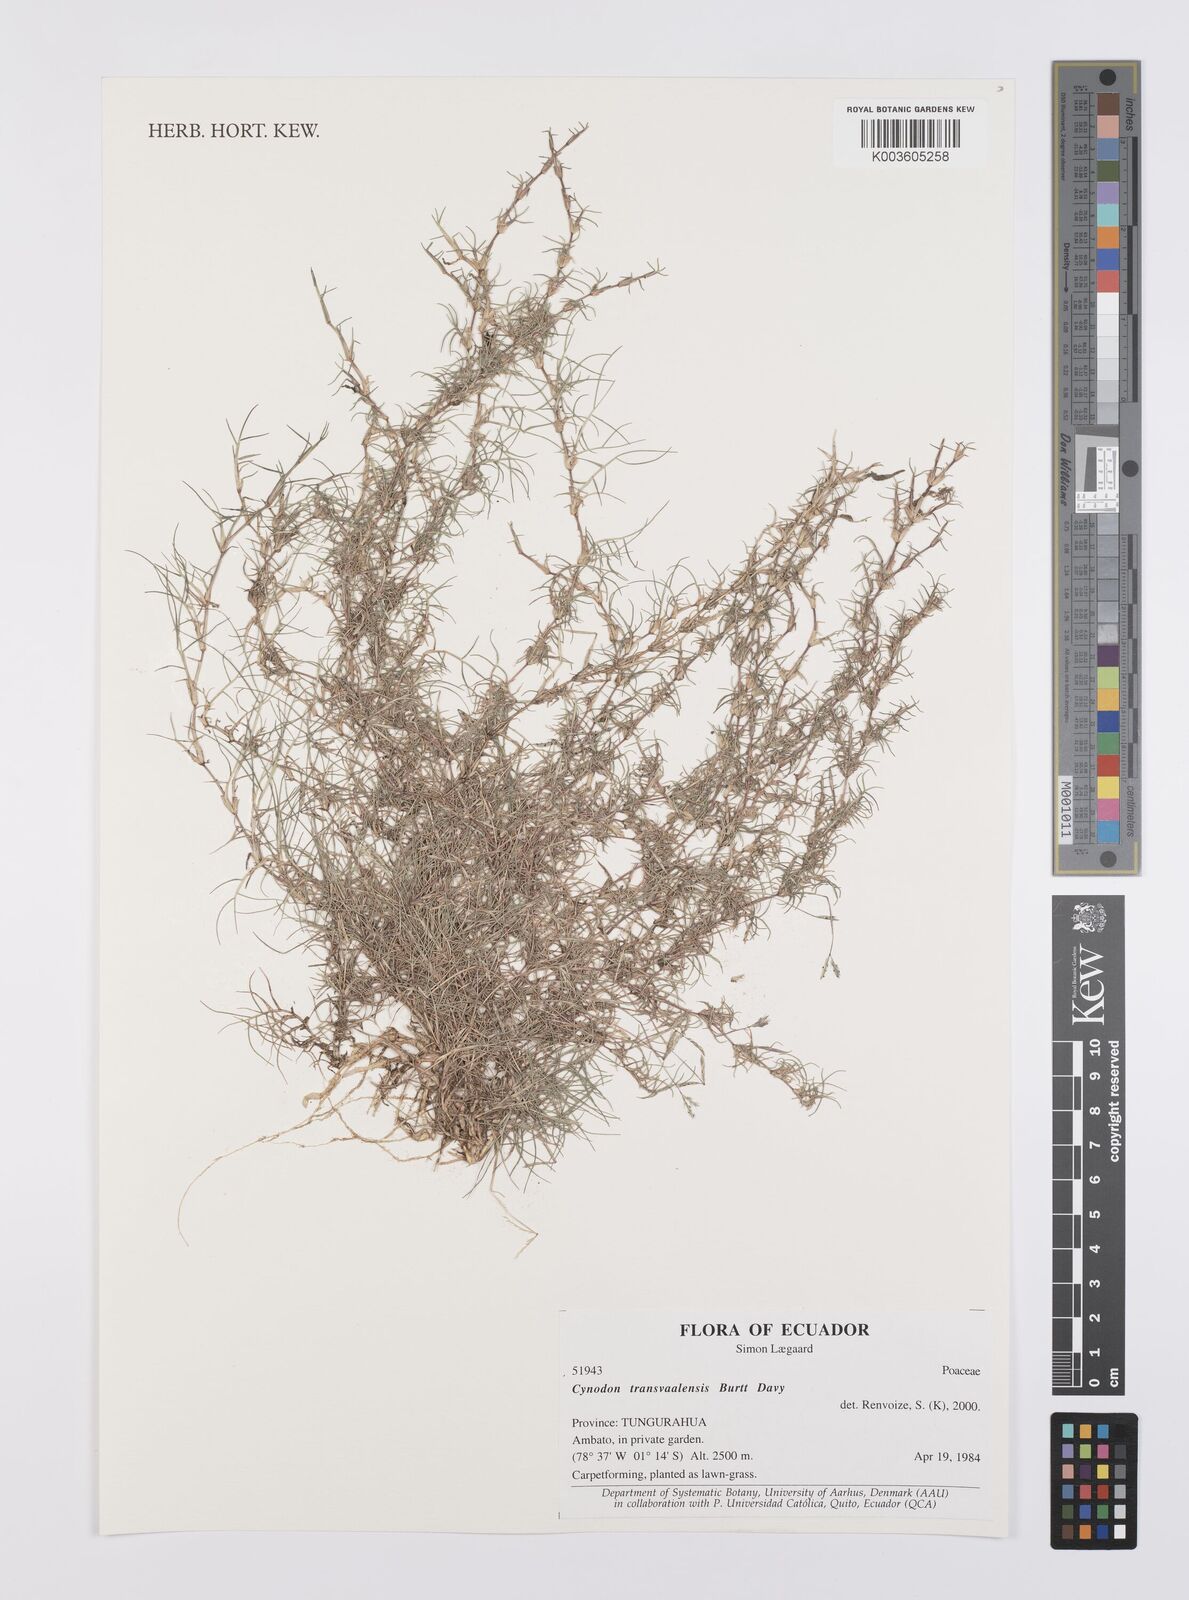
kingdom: Plantae
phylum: Tracheophyta
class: Liliopsida
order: Poales
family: Poaceae
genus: Cynodon
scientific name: Cynodon transvaalensis
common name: African bermuda grass
